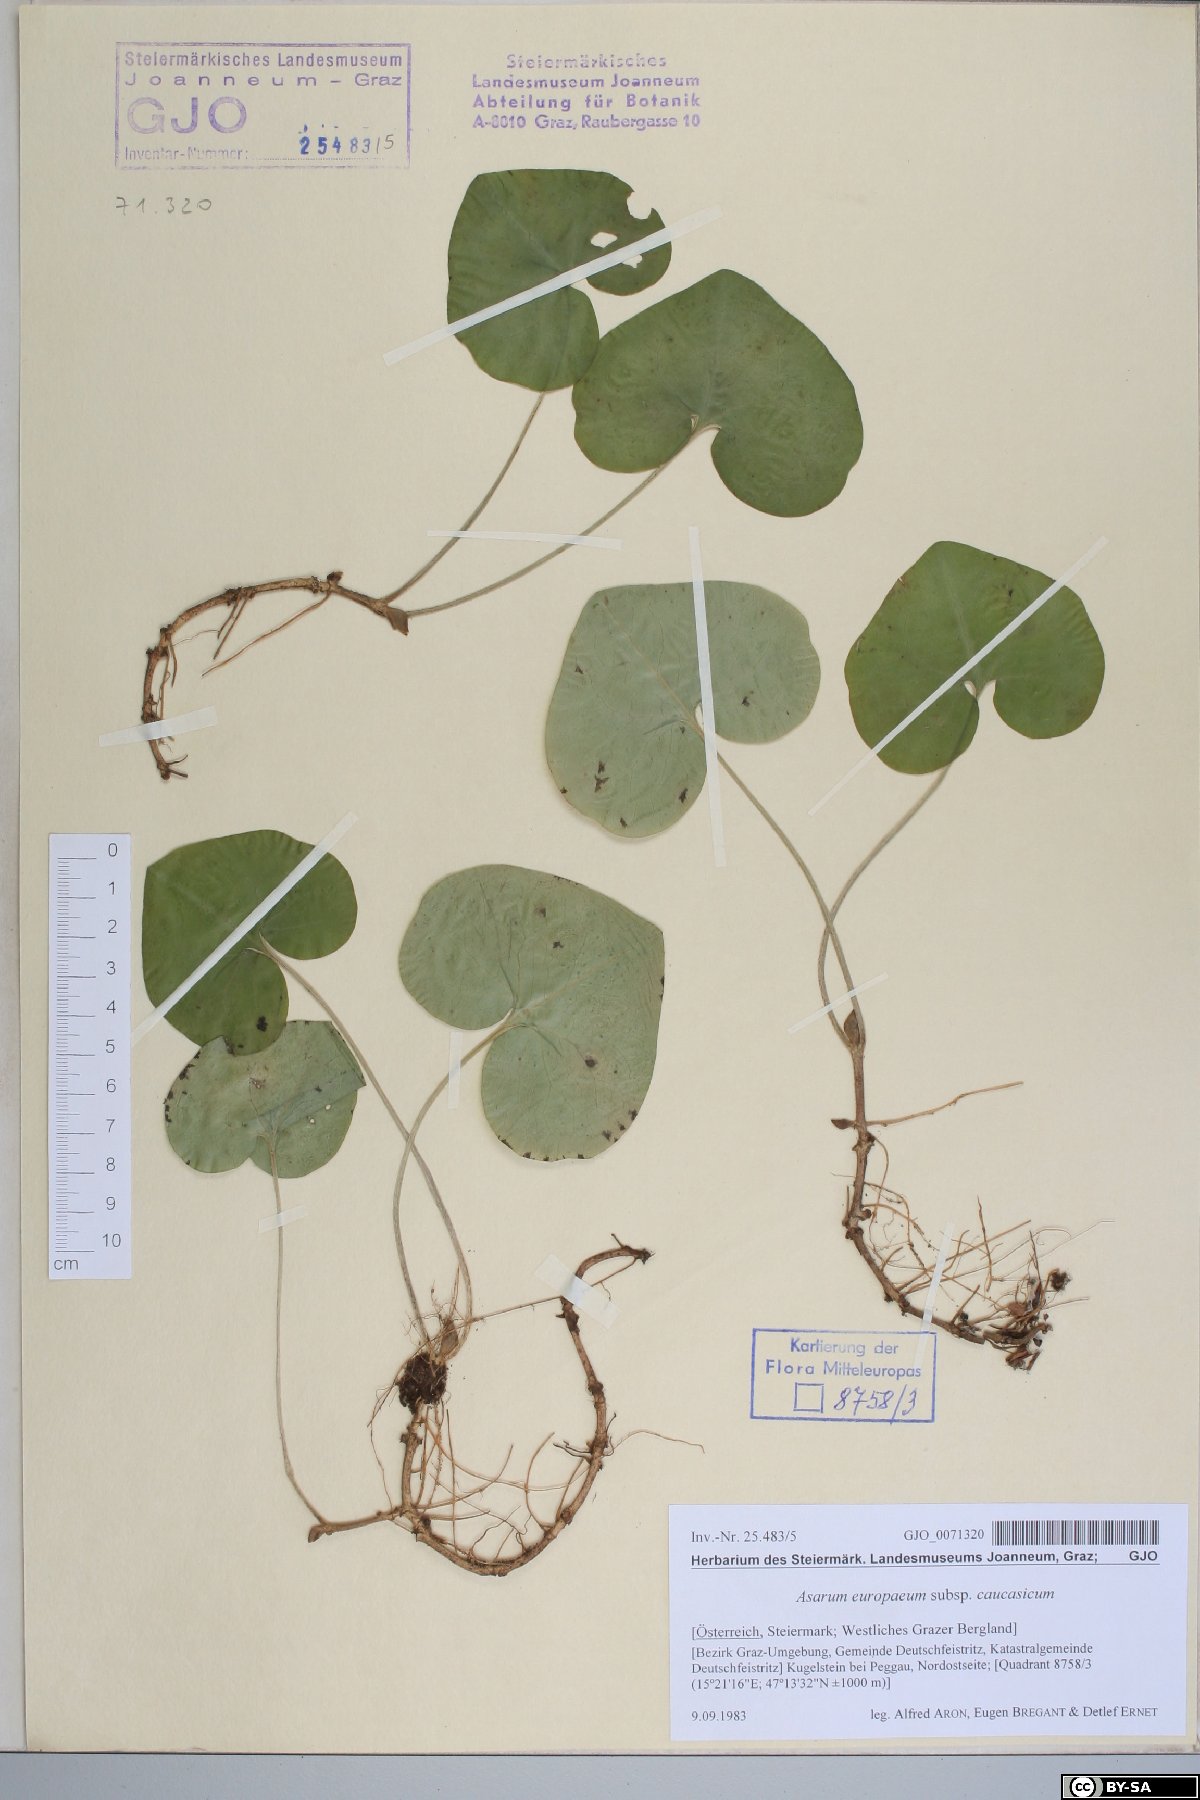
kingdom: Plantae
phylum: Tracheophyta
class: Magnoliopsida
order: Piperales
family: Aristolochiaceae
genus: Asarum
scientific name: Asarum europaeum
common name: Asarabacca
